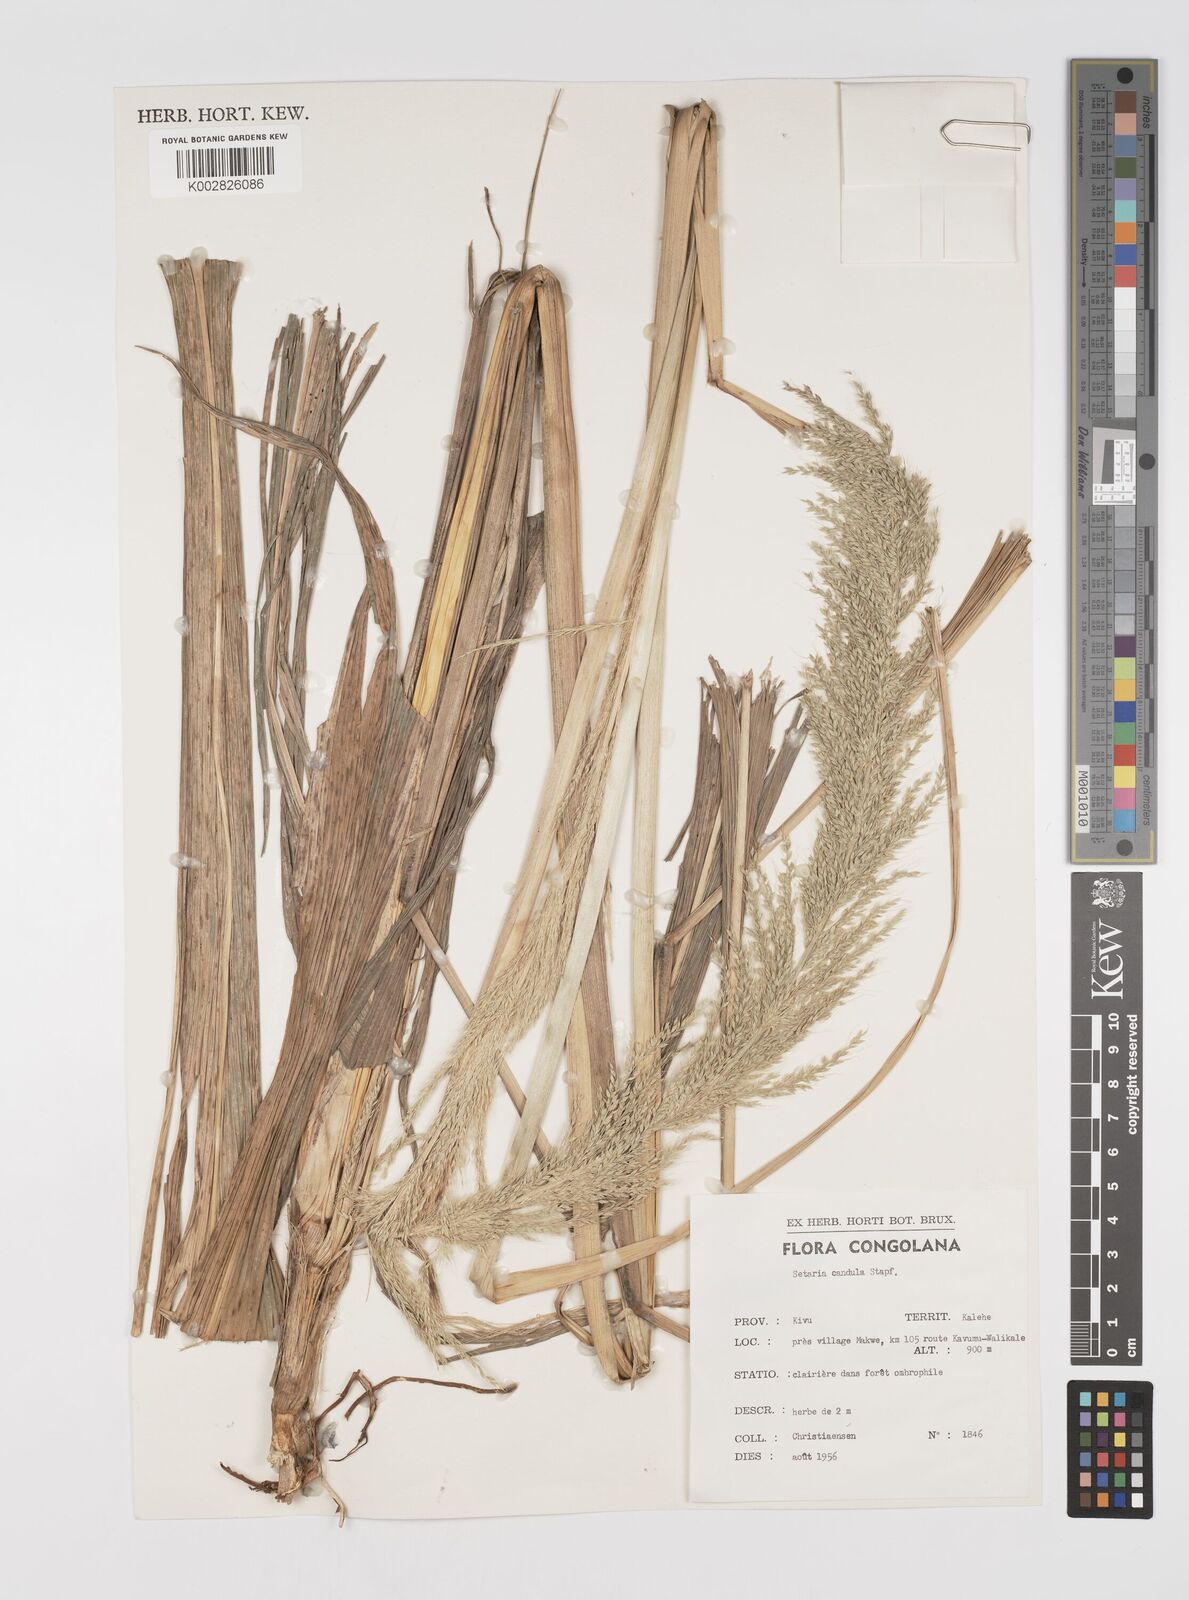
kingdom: Plantae
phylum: Tracheophyta
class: Liliopsida
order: Poales
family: Poaceae
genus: Setaria
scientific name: Setaria poiretiana
